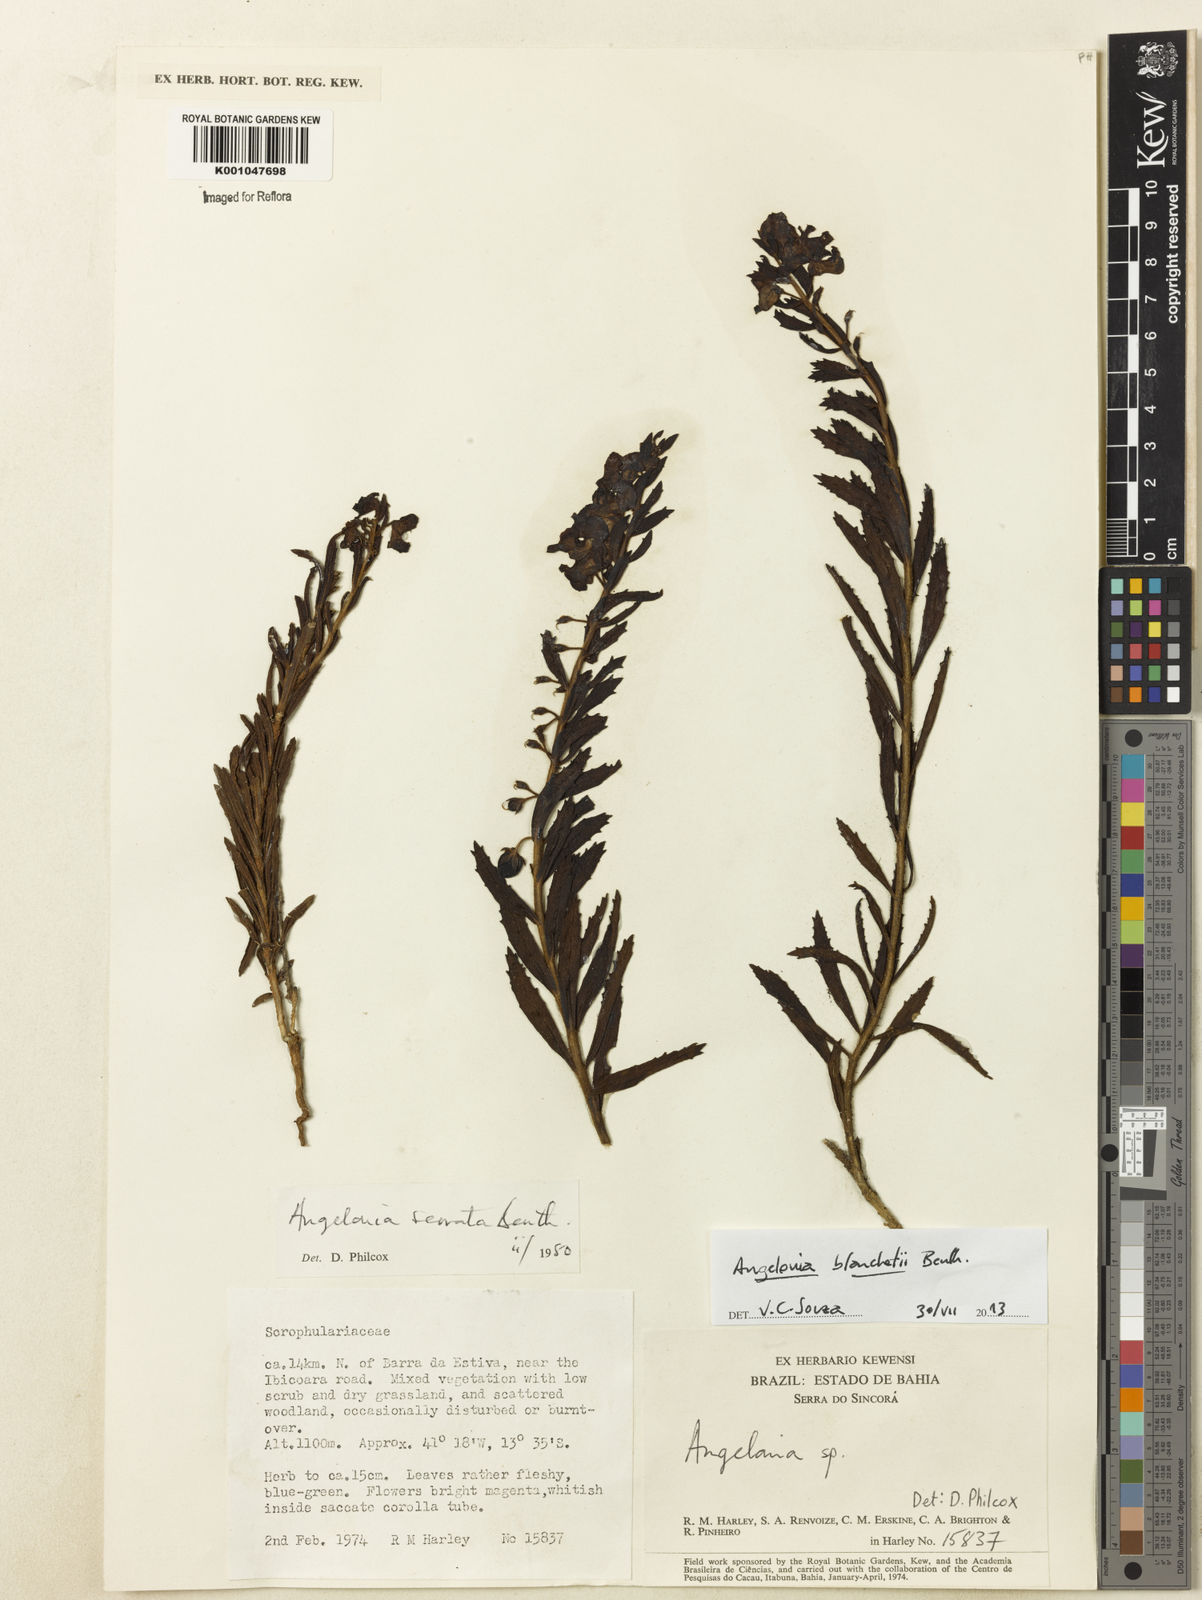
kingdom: Plantae
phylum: Tracheophyta
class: Magnoliopsida
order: Lamiales
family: Plantaginaceae
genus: Angelonia
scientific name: Angelonia blanchetii
